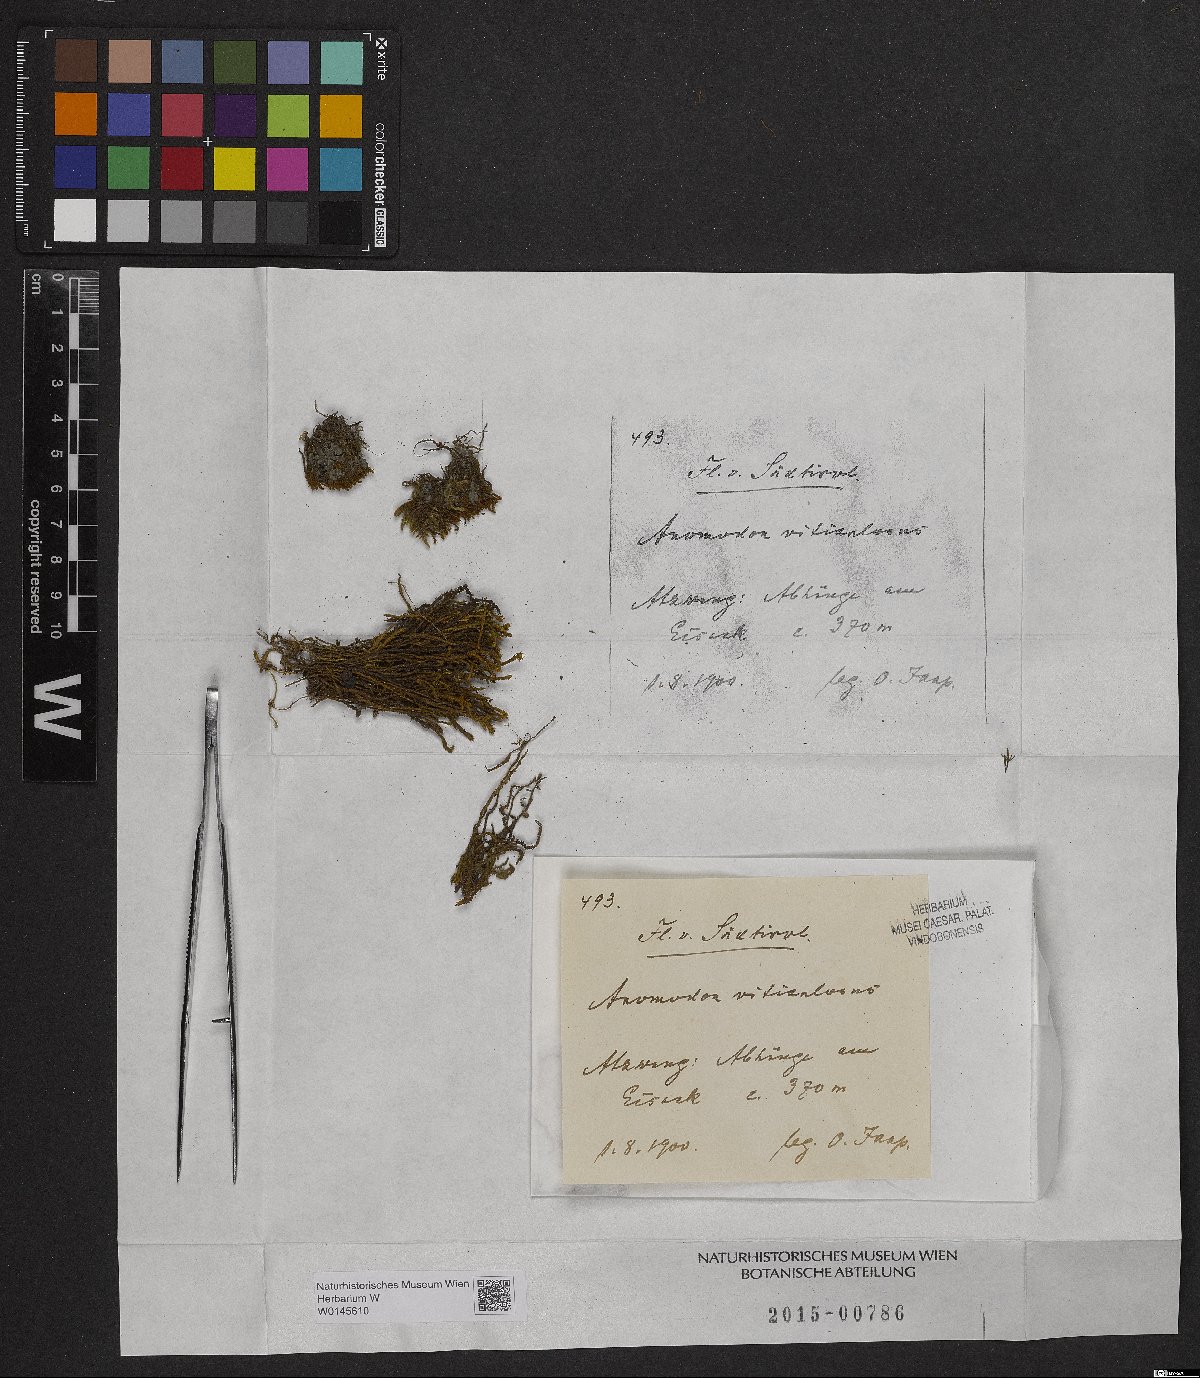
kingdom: Plantae
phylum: Bryophyta
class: Bryopsida
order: Hypnales
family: Anomodontaceae
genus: Anomodon
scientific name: Anomodon viticulosus
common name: Tall anomodon
